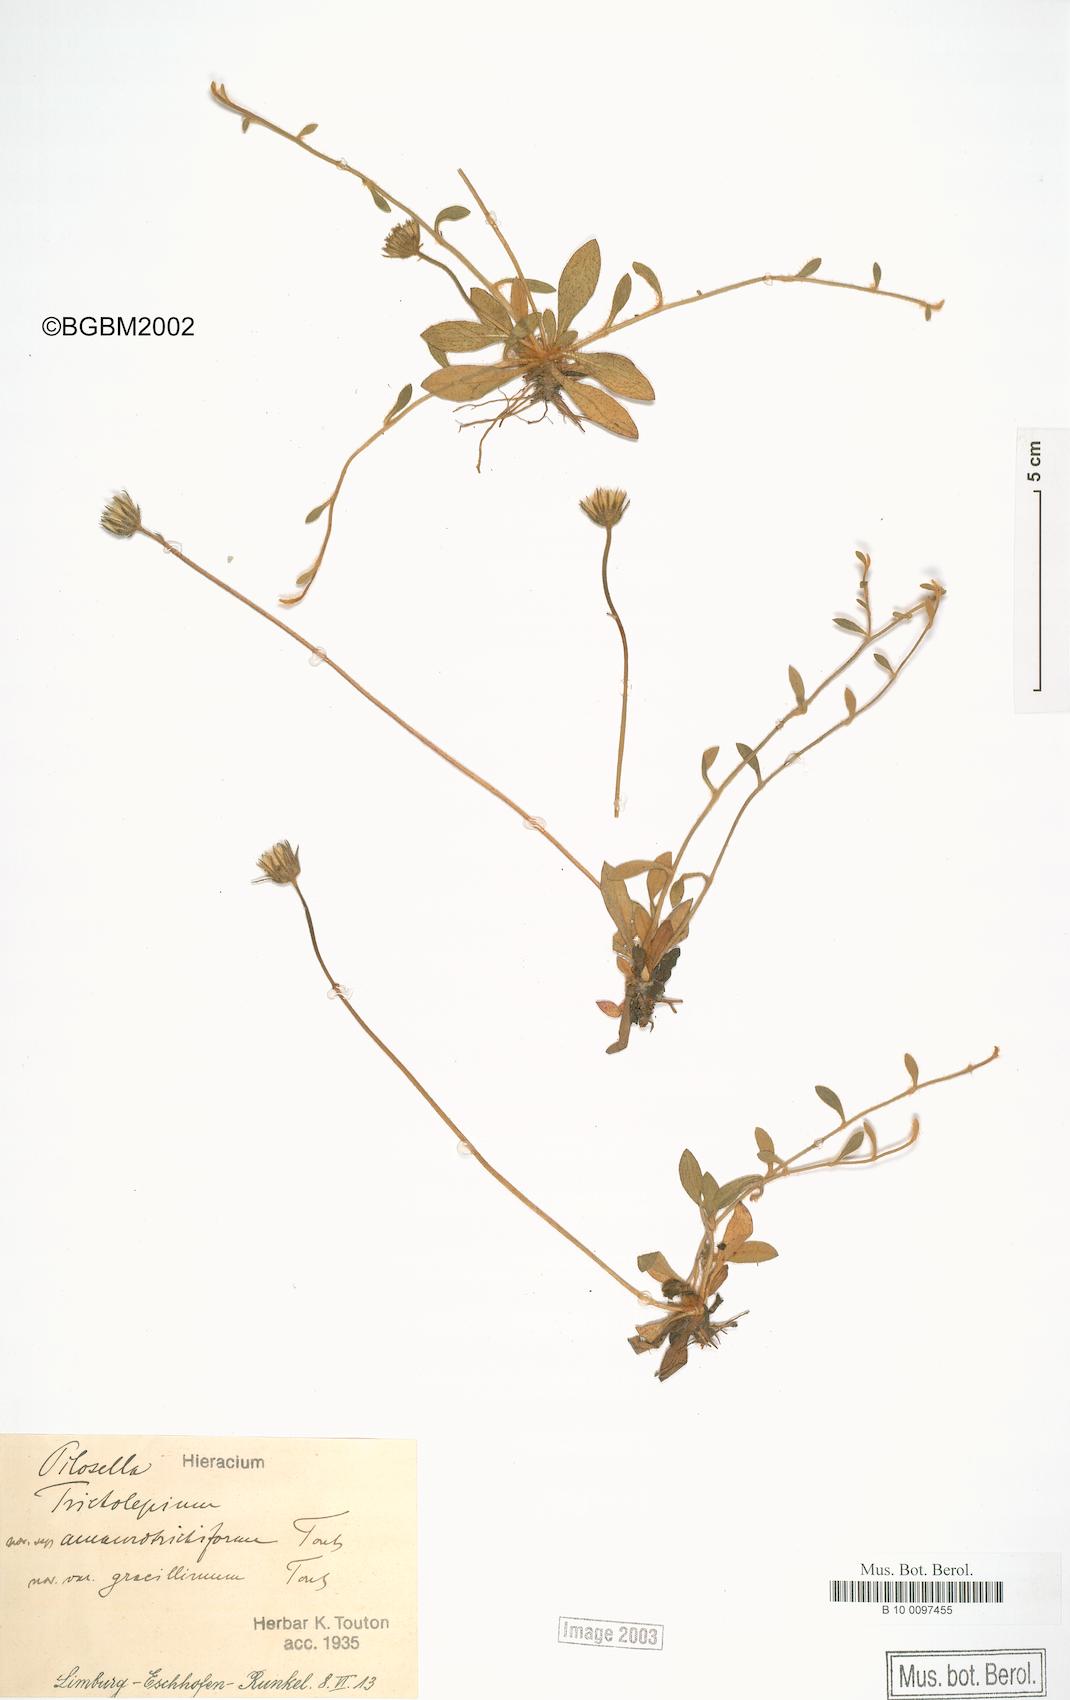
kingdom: Plantae
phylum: Tracheophyta
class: Magnoliopsida
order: Asterales
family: Asteraceae
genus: Pilosella
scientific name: Pilosella officinarum
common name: Mouse-ear hawkweed
